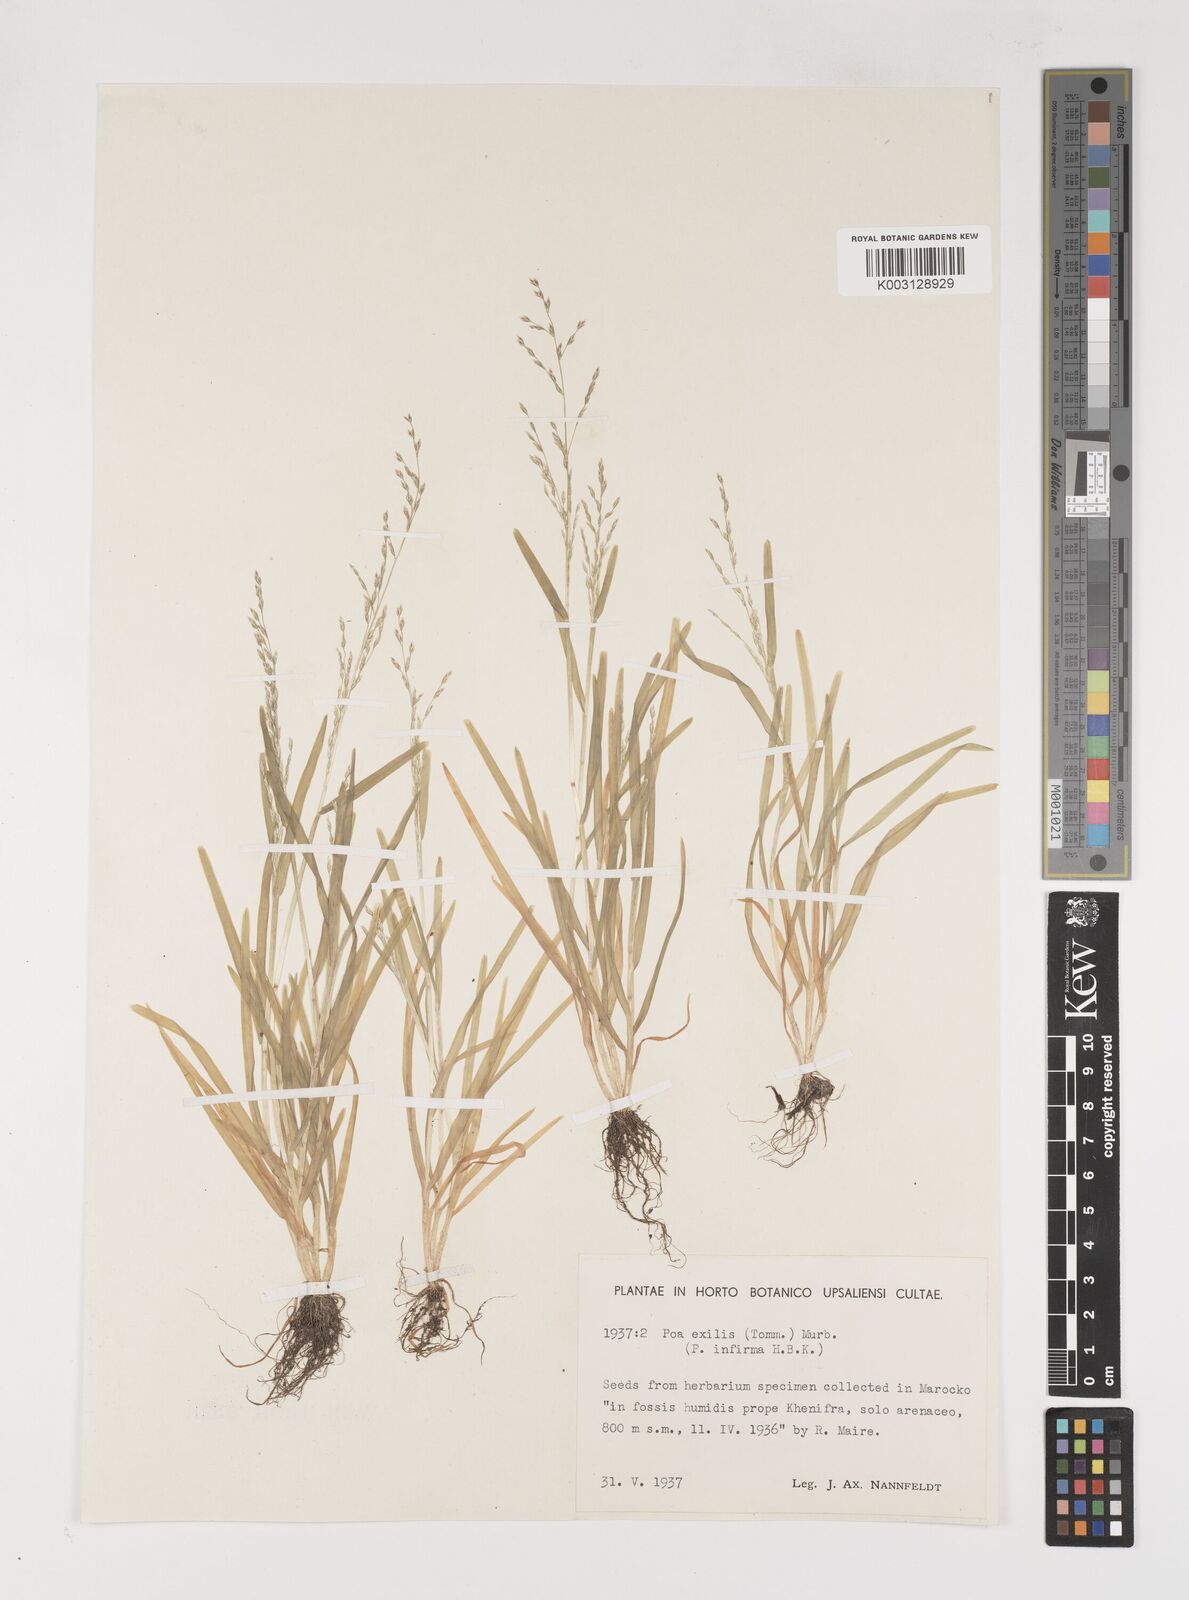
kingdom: Plantae
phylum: Tracheophyta
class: Liliopsida
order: Poales
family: Poaceae
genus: Poa
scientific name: Poa infirma
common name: Weak bluegrass
